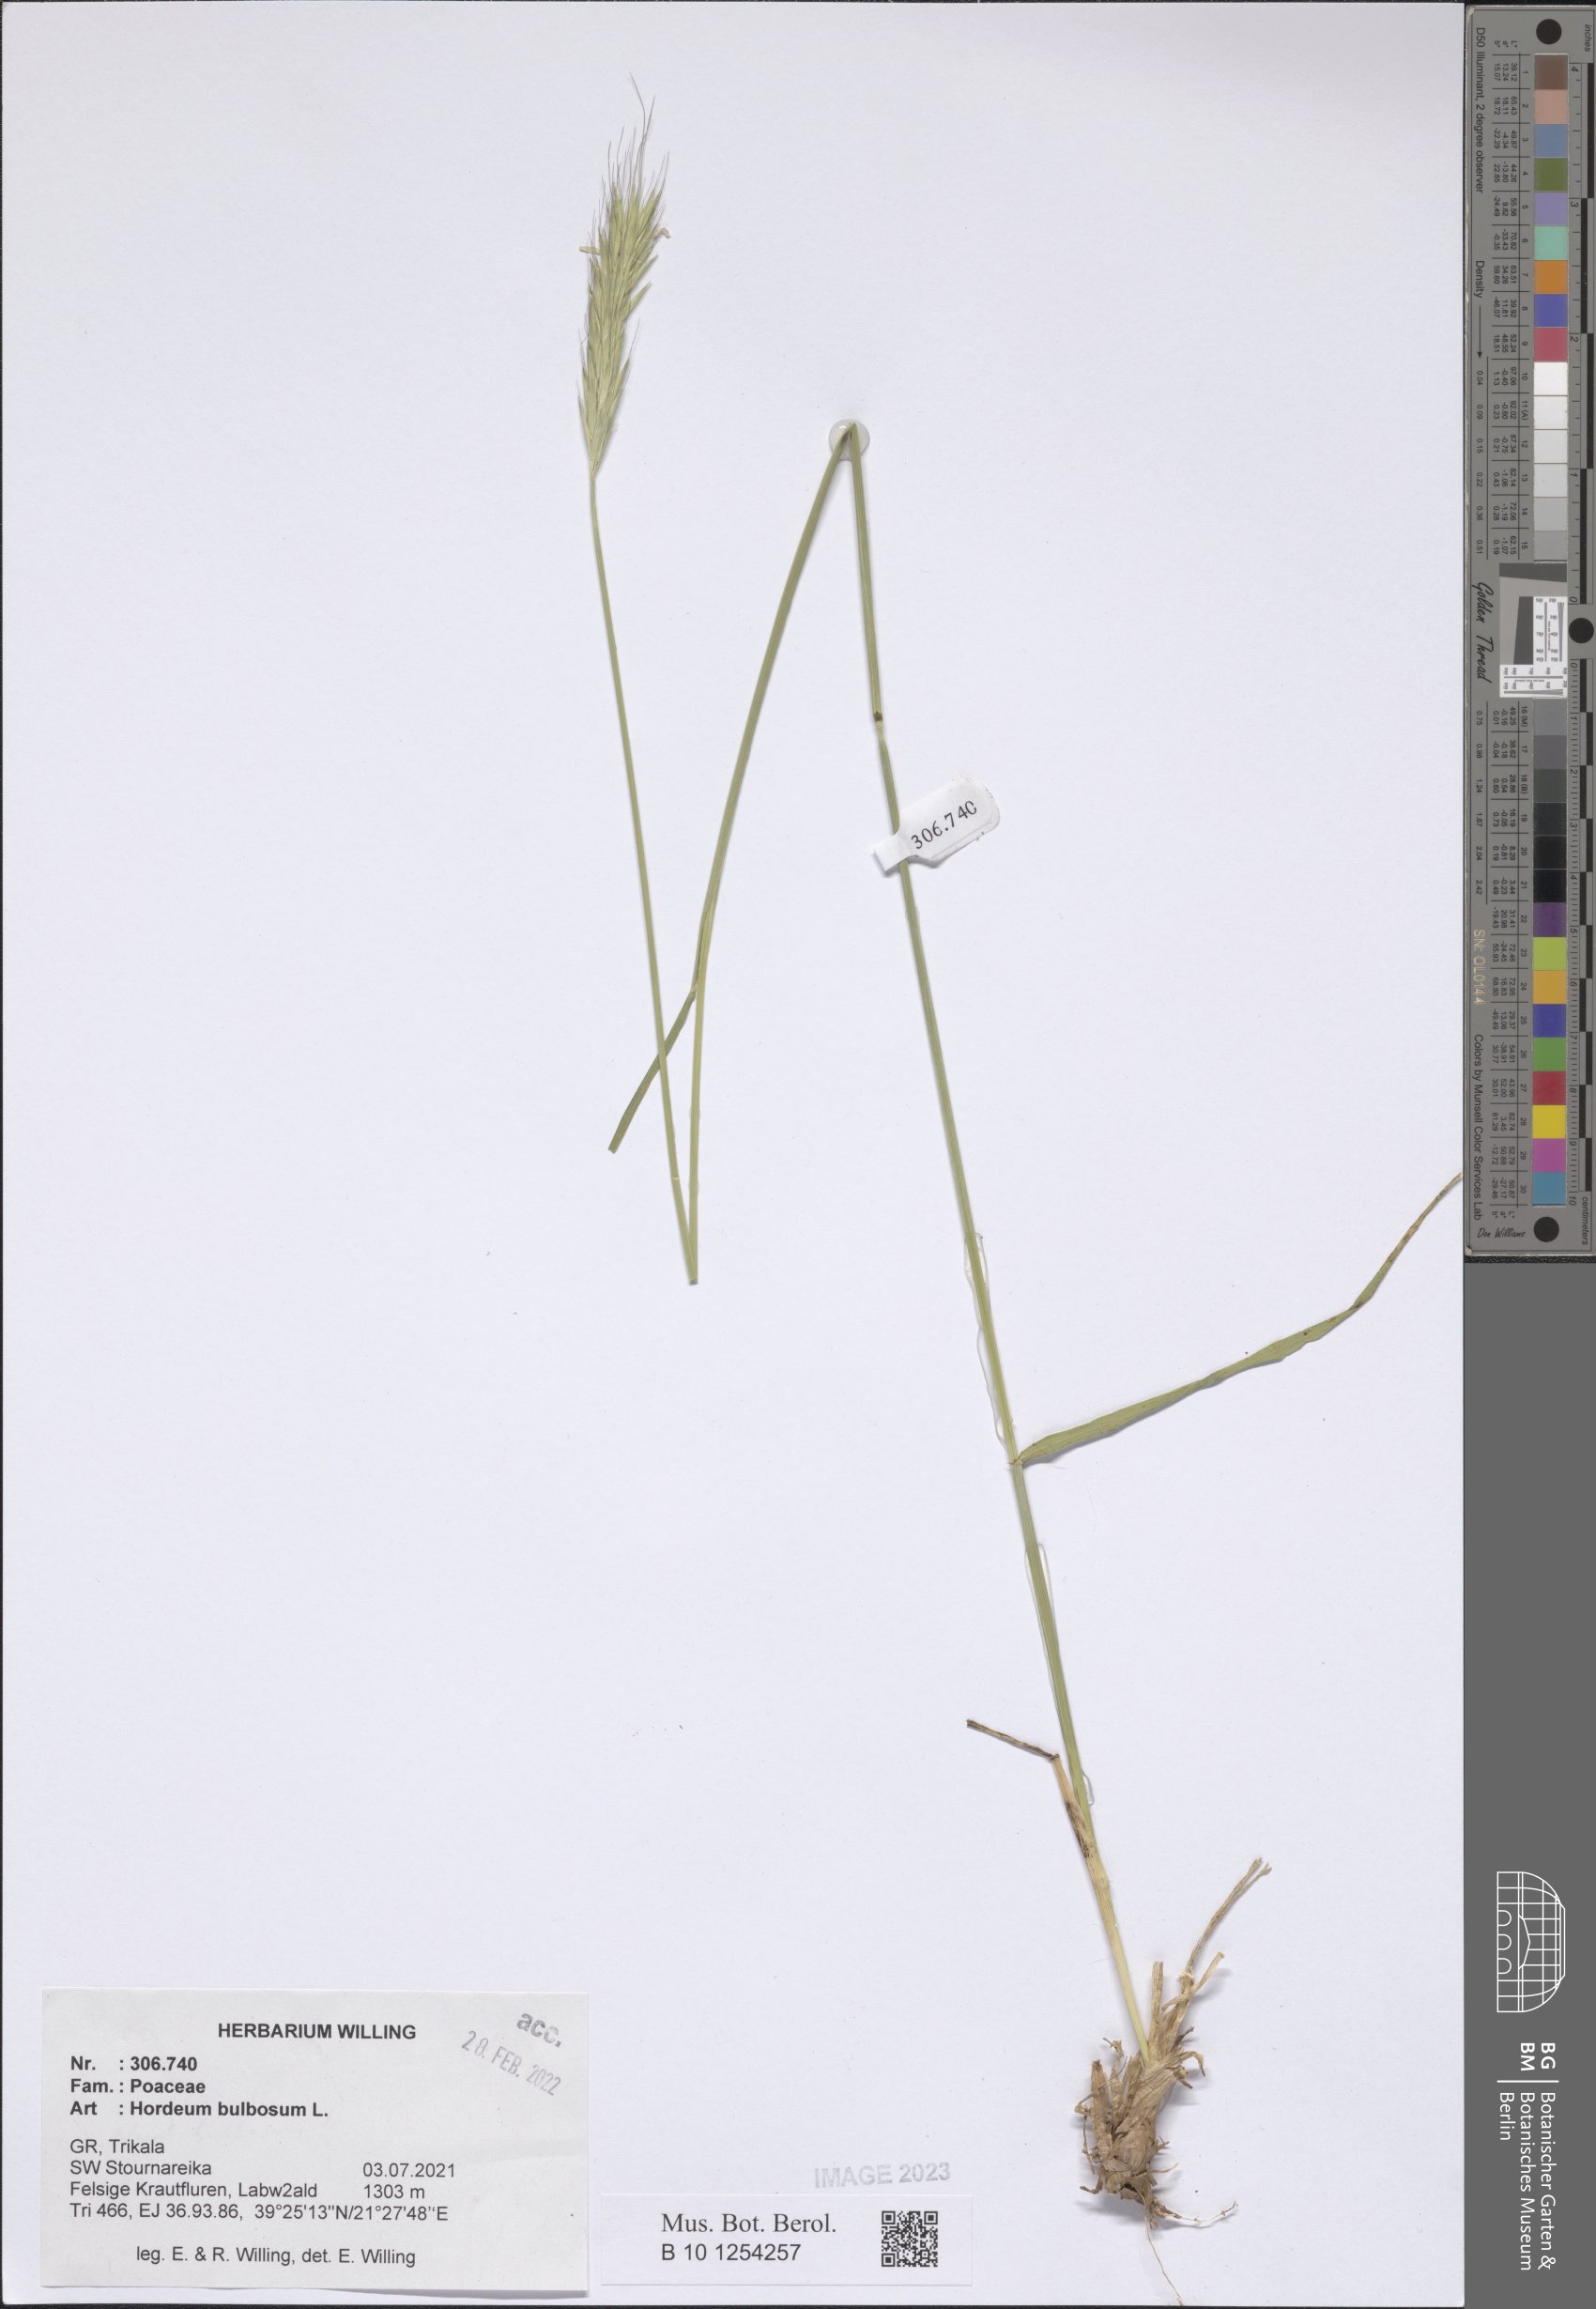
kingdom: Plantae
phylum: Tracheophyta
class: Liliopsida
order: Poales
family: Poaceae
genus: Hordeum
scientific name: Hordeum bulbosum
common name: Bulbous barley
